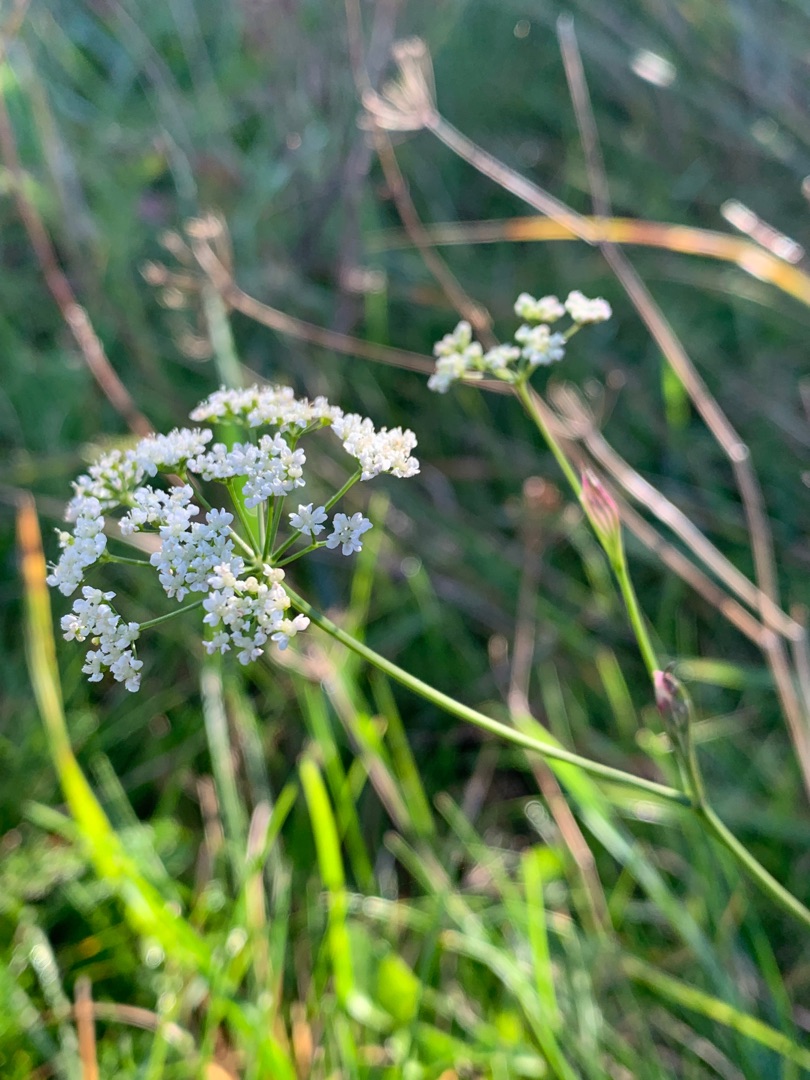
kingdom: Plantae
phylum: Tracheophyta
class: Magnoliopsida
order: Apiales
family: Apiaceae
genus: Pimpinella
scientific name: Pimpinella saxifraga
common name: Almindelig pimpinelle
